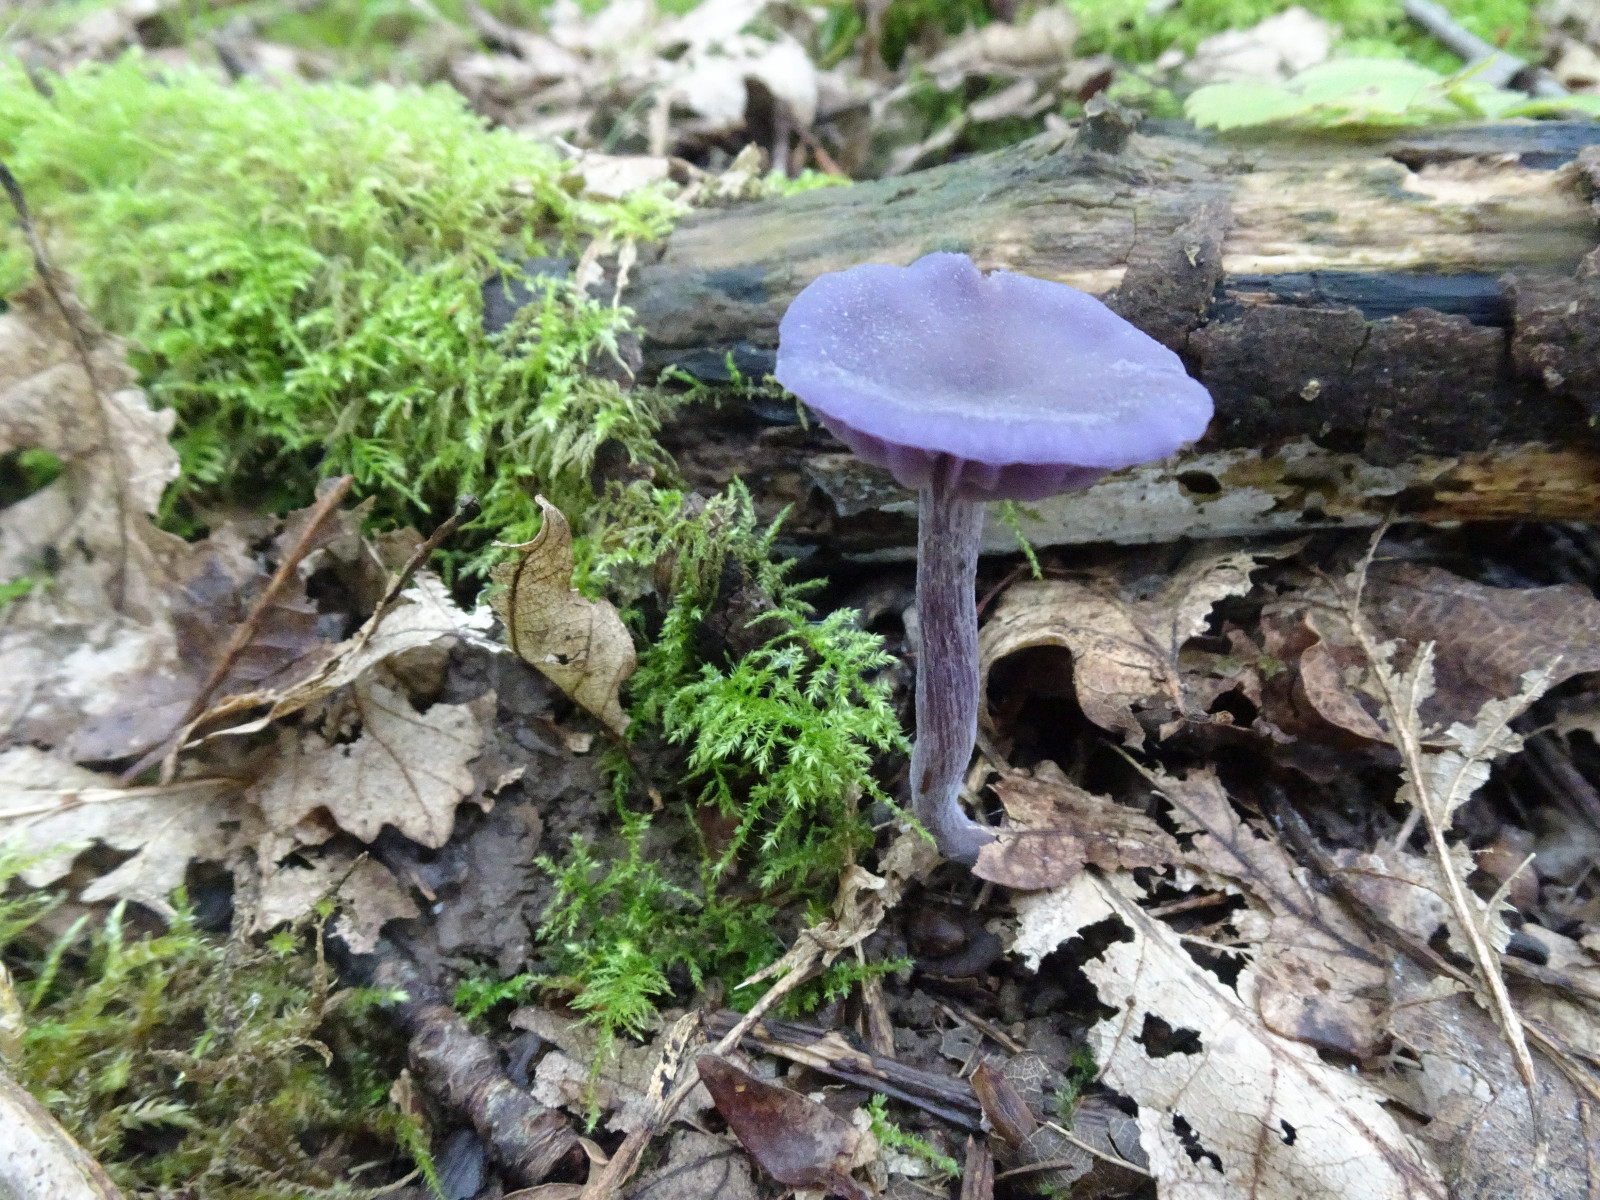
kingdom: Fungi
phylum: Basidiomycota
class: Agaricomycetes
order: Agaricales
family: Hydnangiaceae
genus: Laccaria
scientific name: Laccaria amethystina
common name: violet ametysthat
